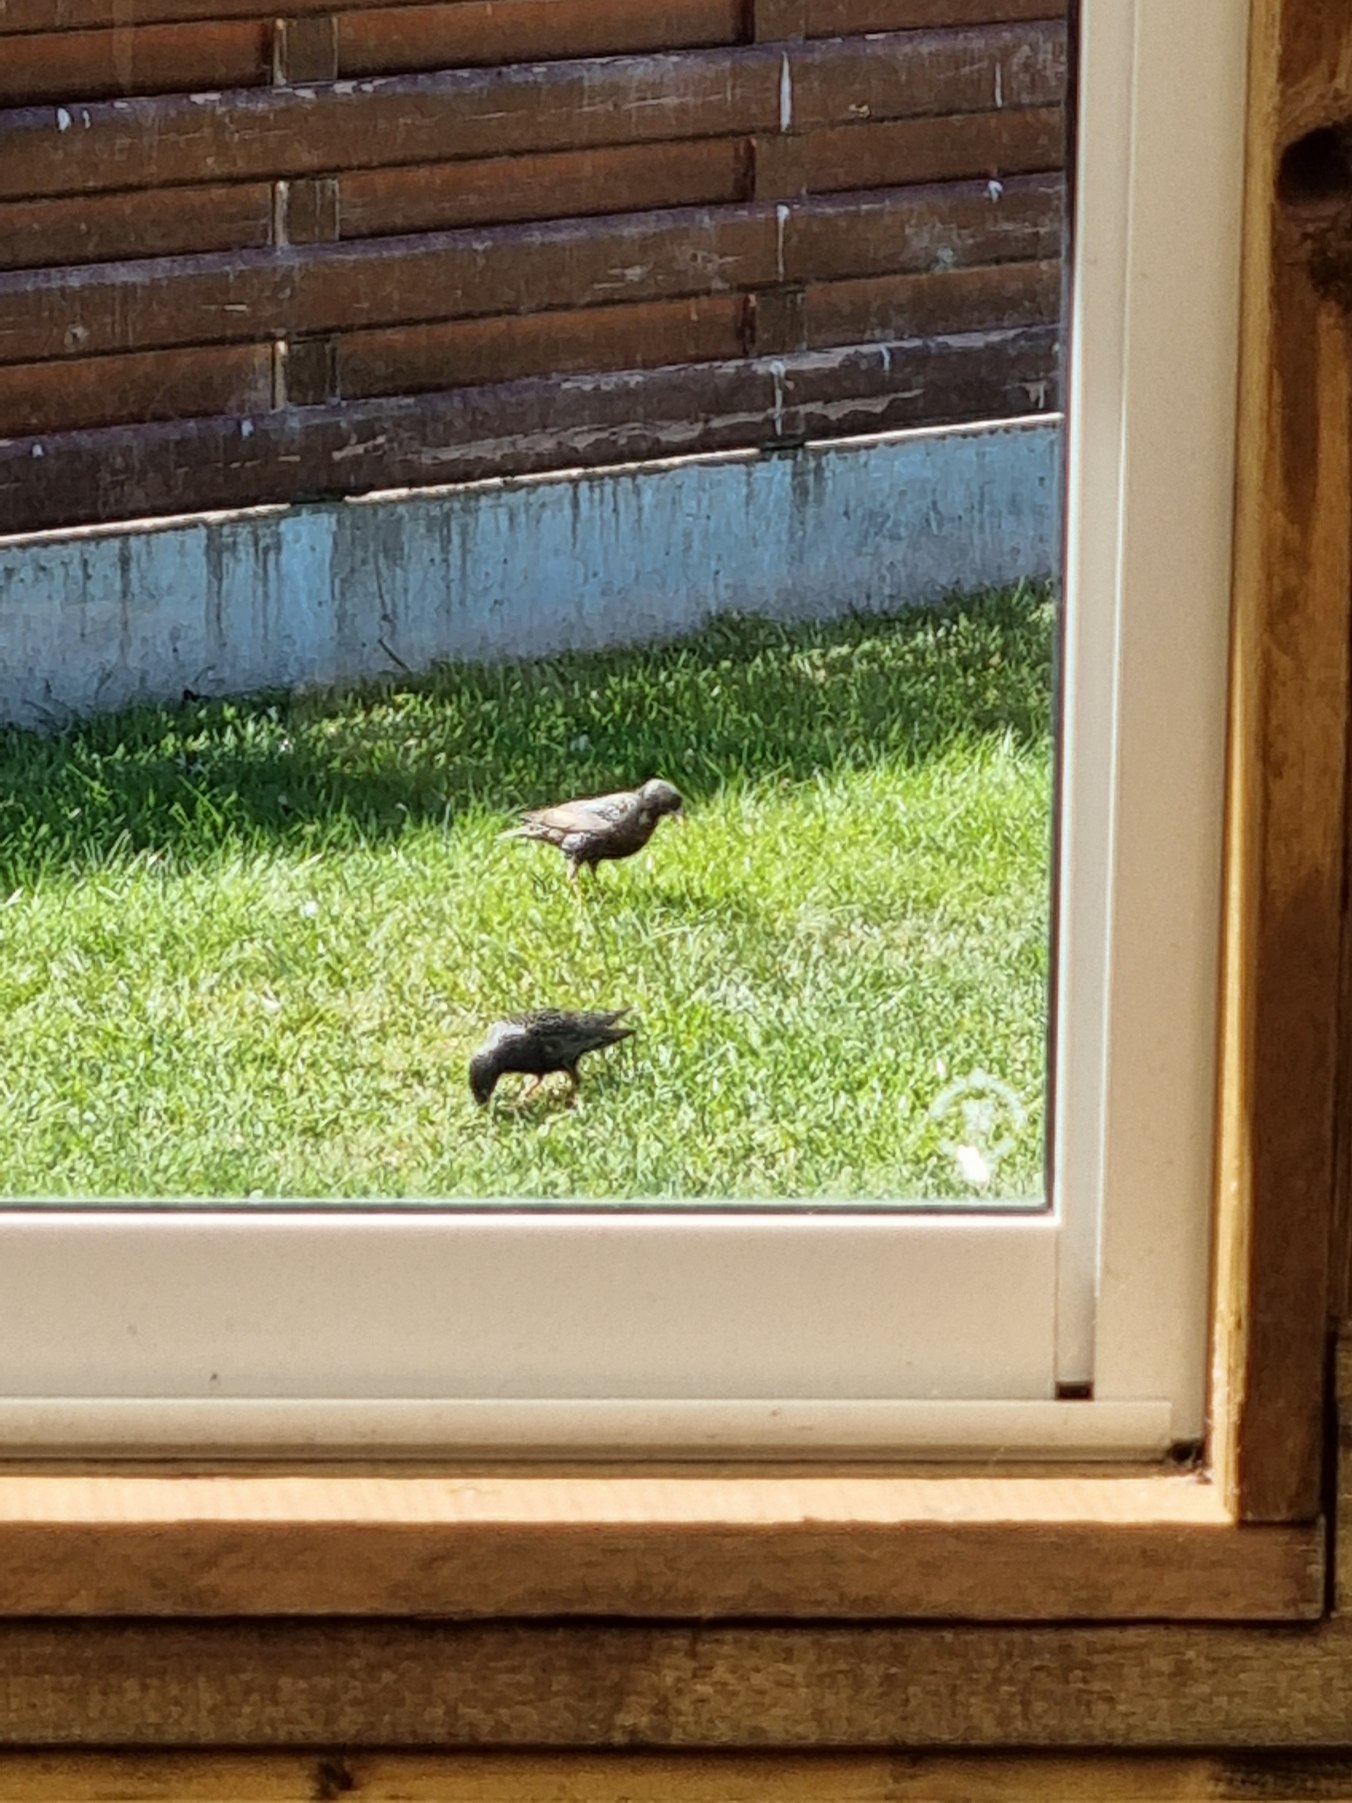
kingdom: Animalia
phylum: Chordata
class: Aves
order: Passeriformes
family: Sturnidae
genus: Sturnus
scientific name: Sturnus vulgaris
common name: Stær
